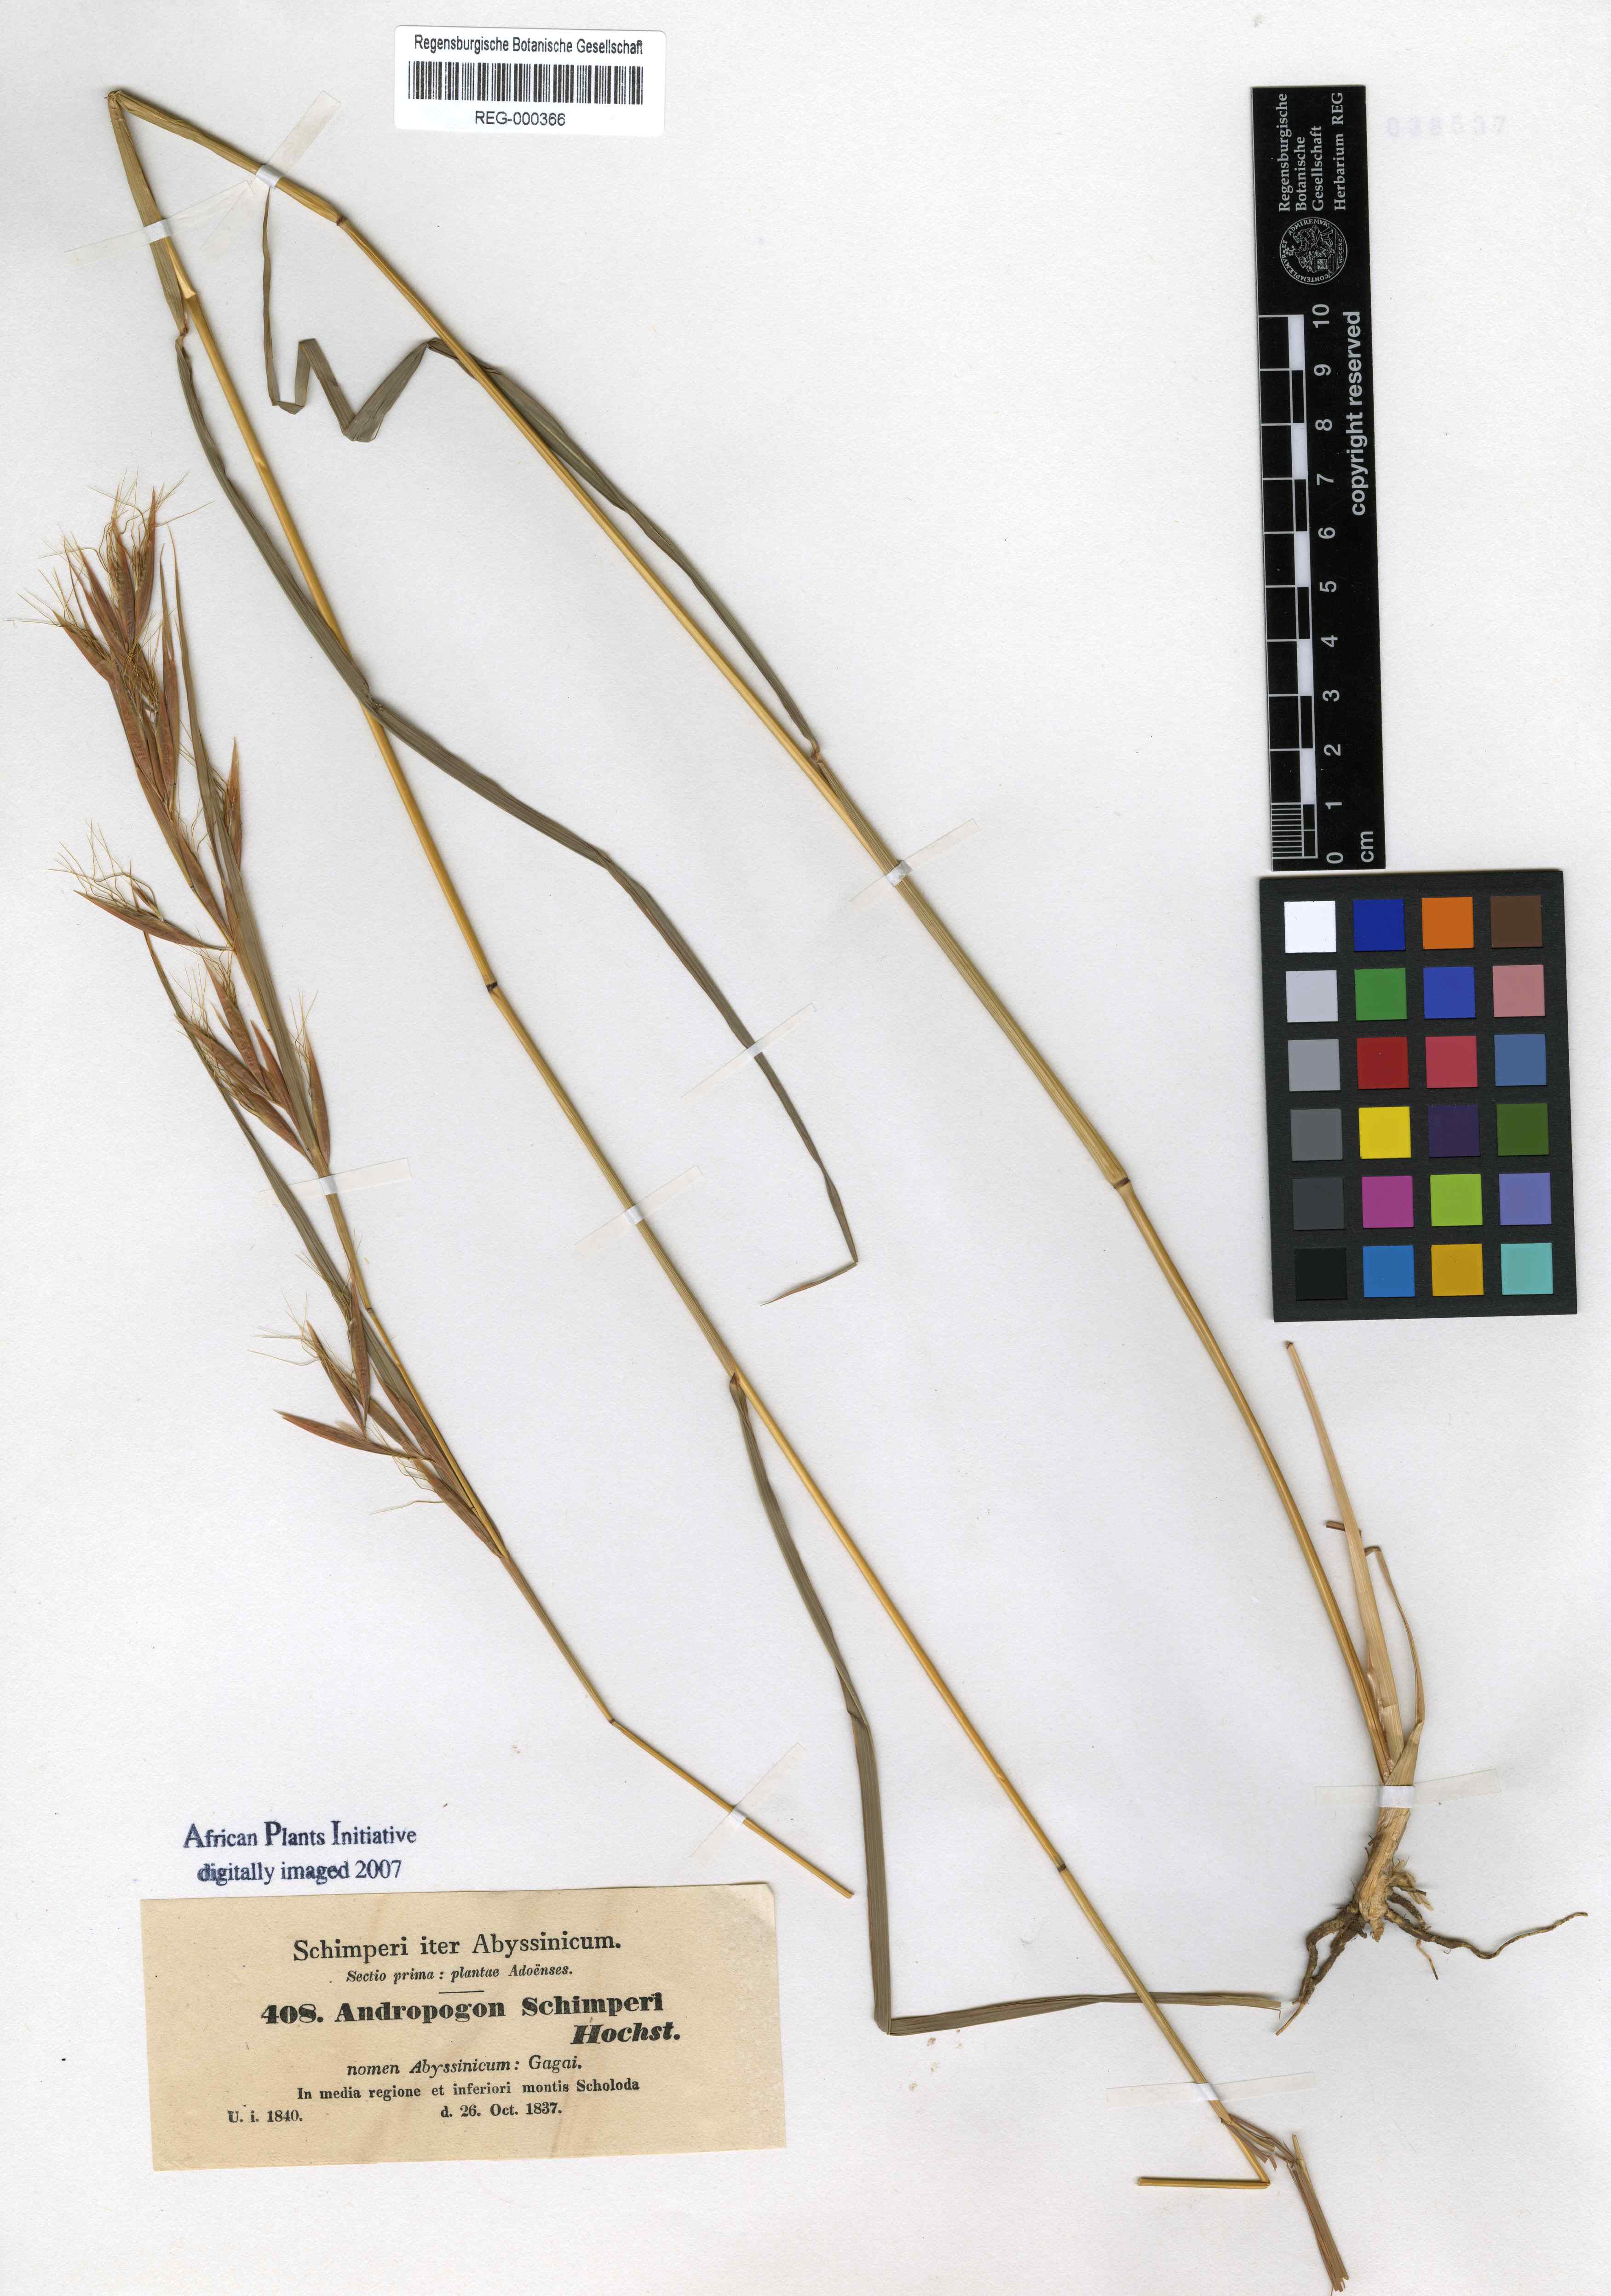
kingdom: Plantae
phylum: Tracheophyta
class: Liliopsida
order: Poales
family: Poaceae
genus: Hyparrhenia
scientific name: Hyparrhenia schimperi
